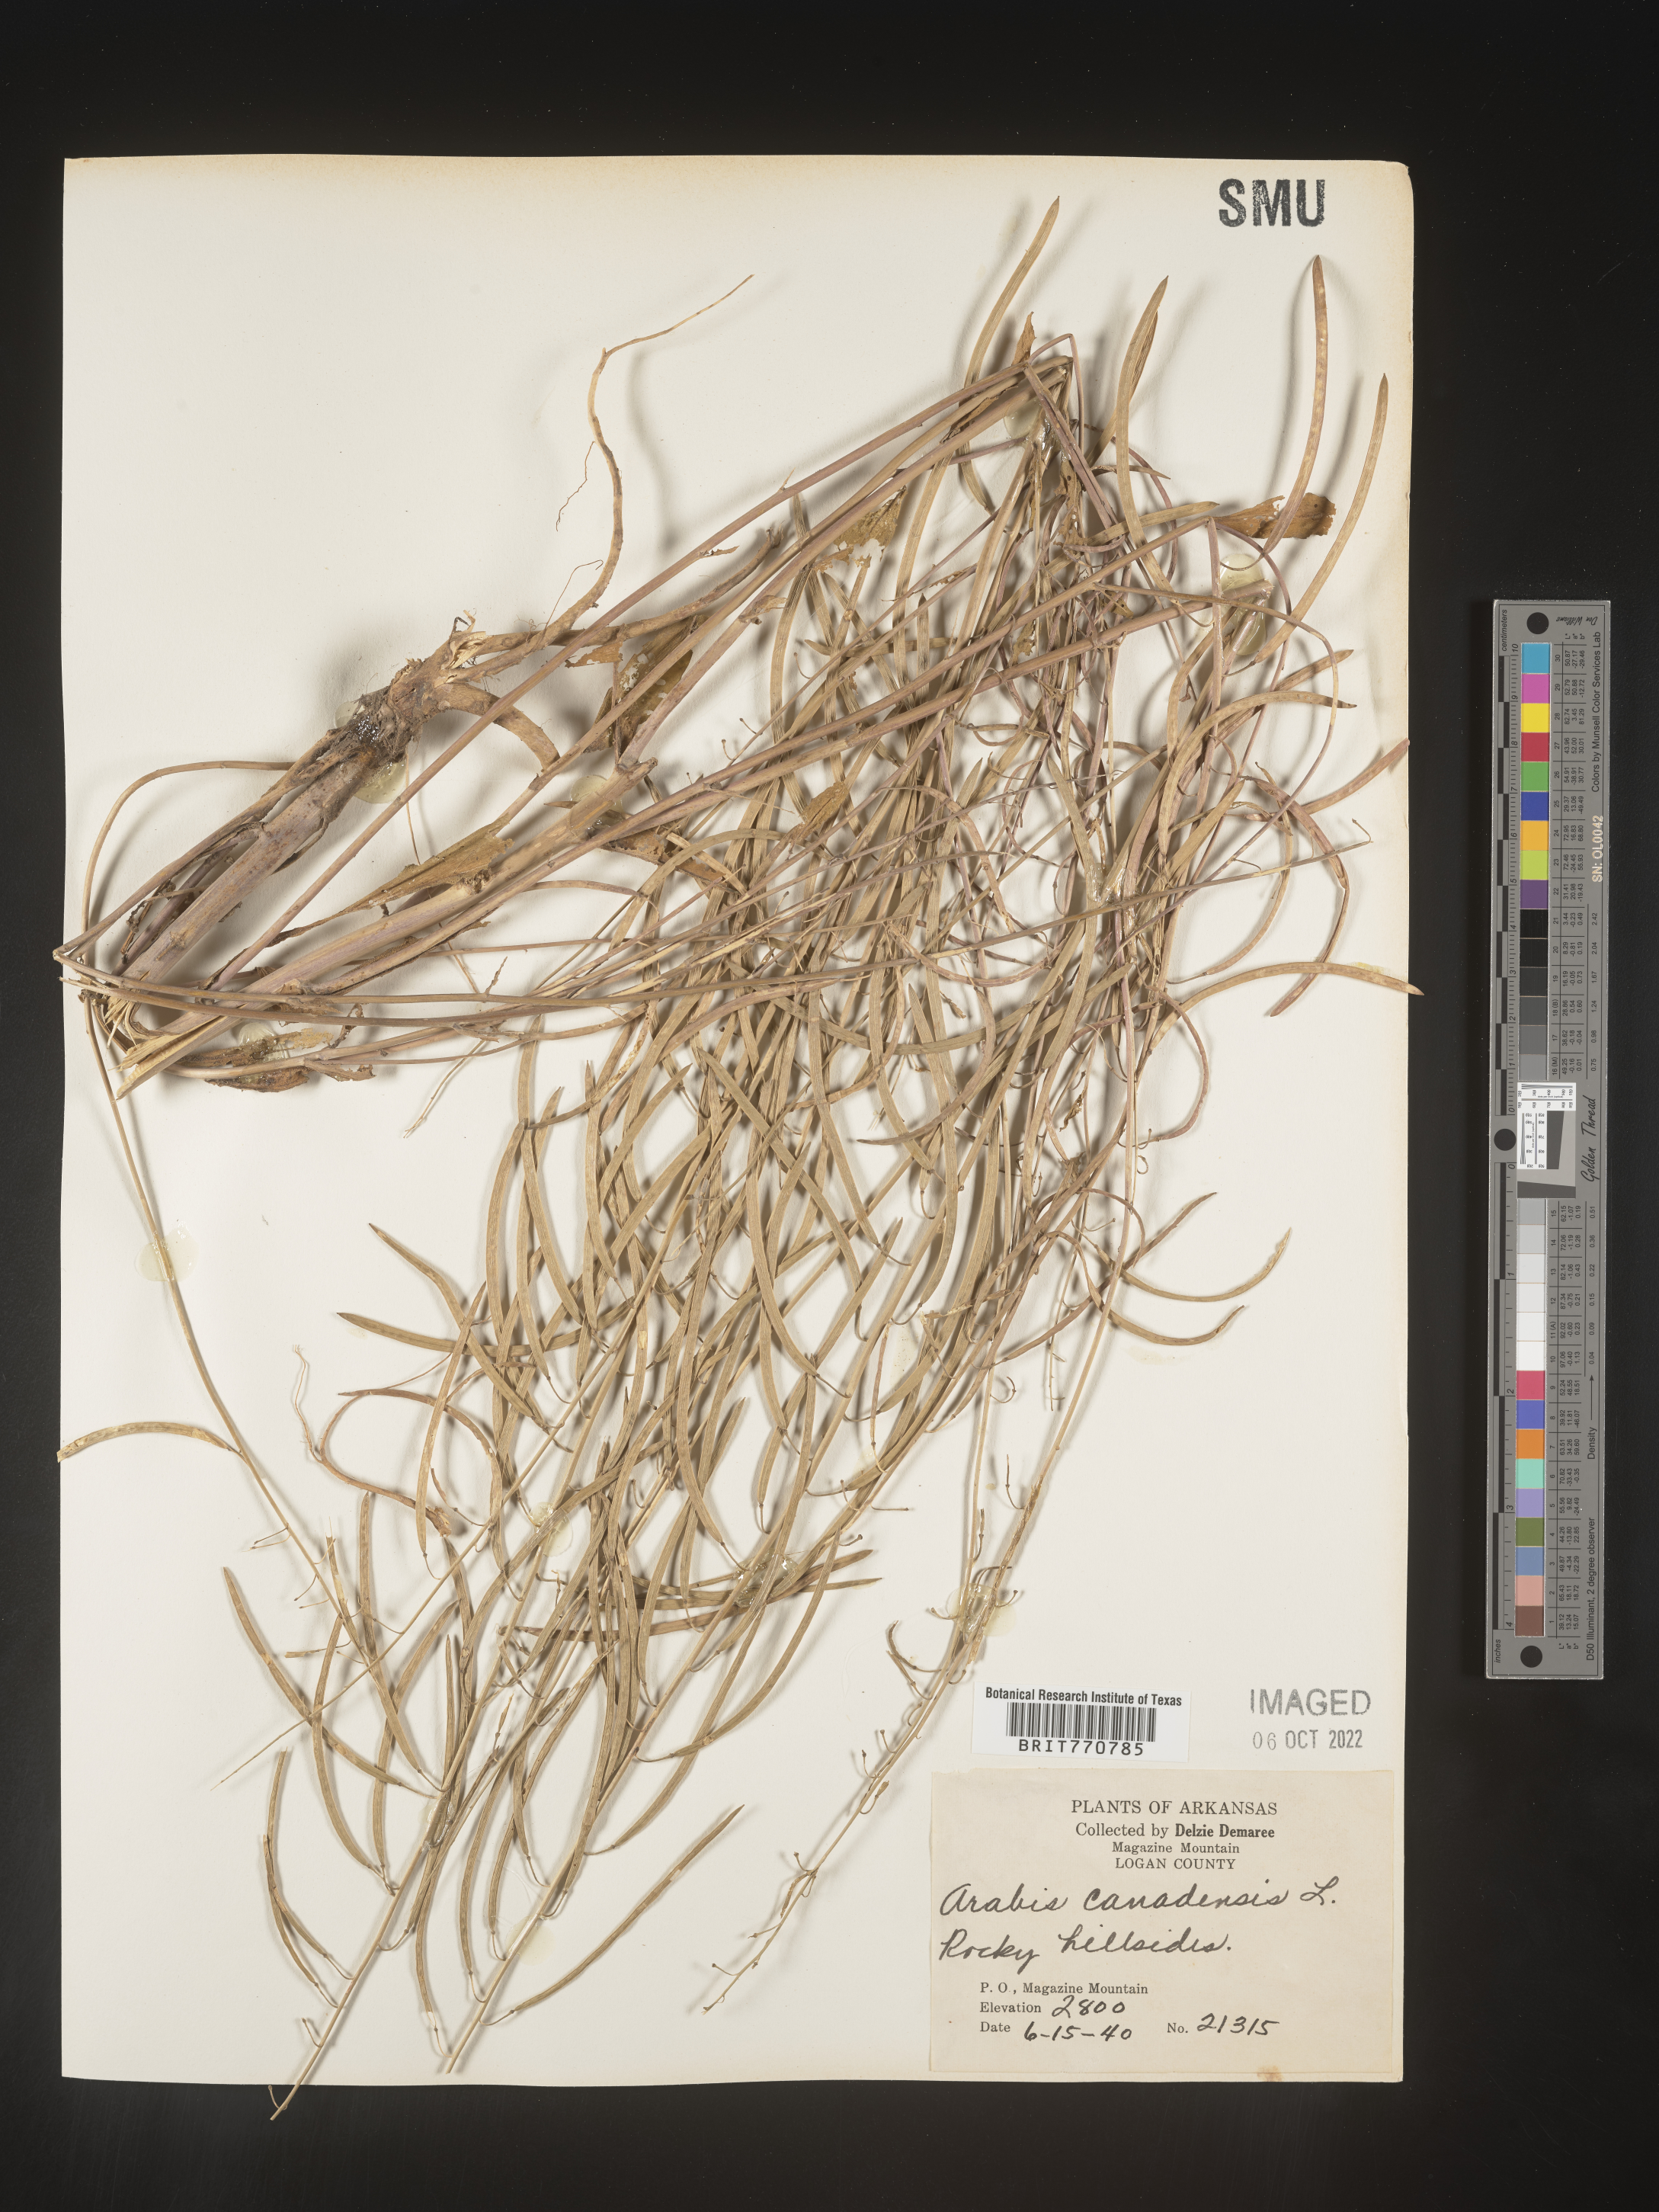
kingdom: Plantae
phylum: Tracheophyta
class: Magnoliopsida
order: Brassicales
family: Brassicaceae
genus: Borodinia
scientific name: Borodinia canadensis
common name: Sicklepod
